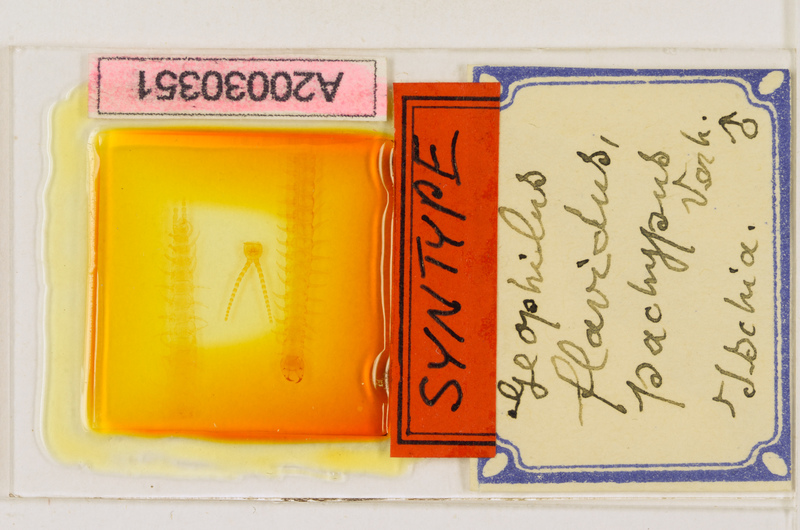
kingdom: Animalia
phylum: Arthropoda
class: Chilopoda
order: Geophilomorpha
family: Geophilidae
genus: Clinopodes
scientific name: Clinopodes flavidus
